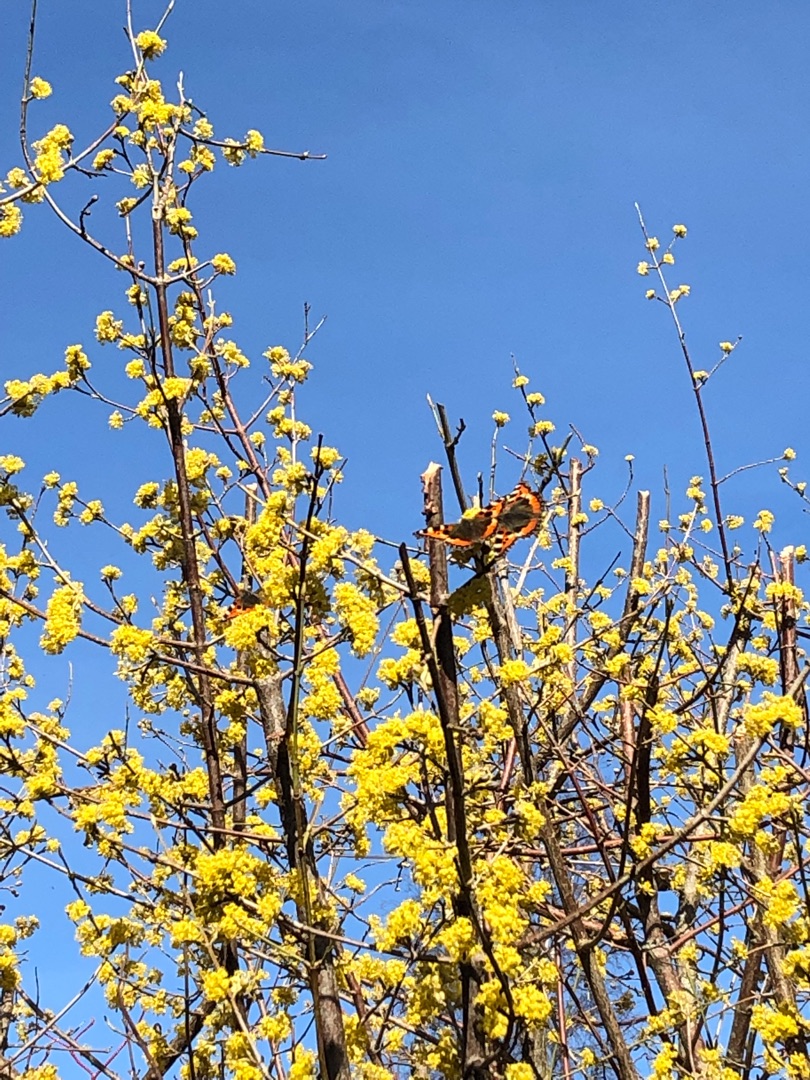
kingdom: Animalia
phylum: Arthropoda
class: Insecta
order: Lepidoptera
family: Nymphalidae
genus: Aglais
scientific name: Aglais urticae
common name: Nældens takvinge
